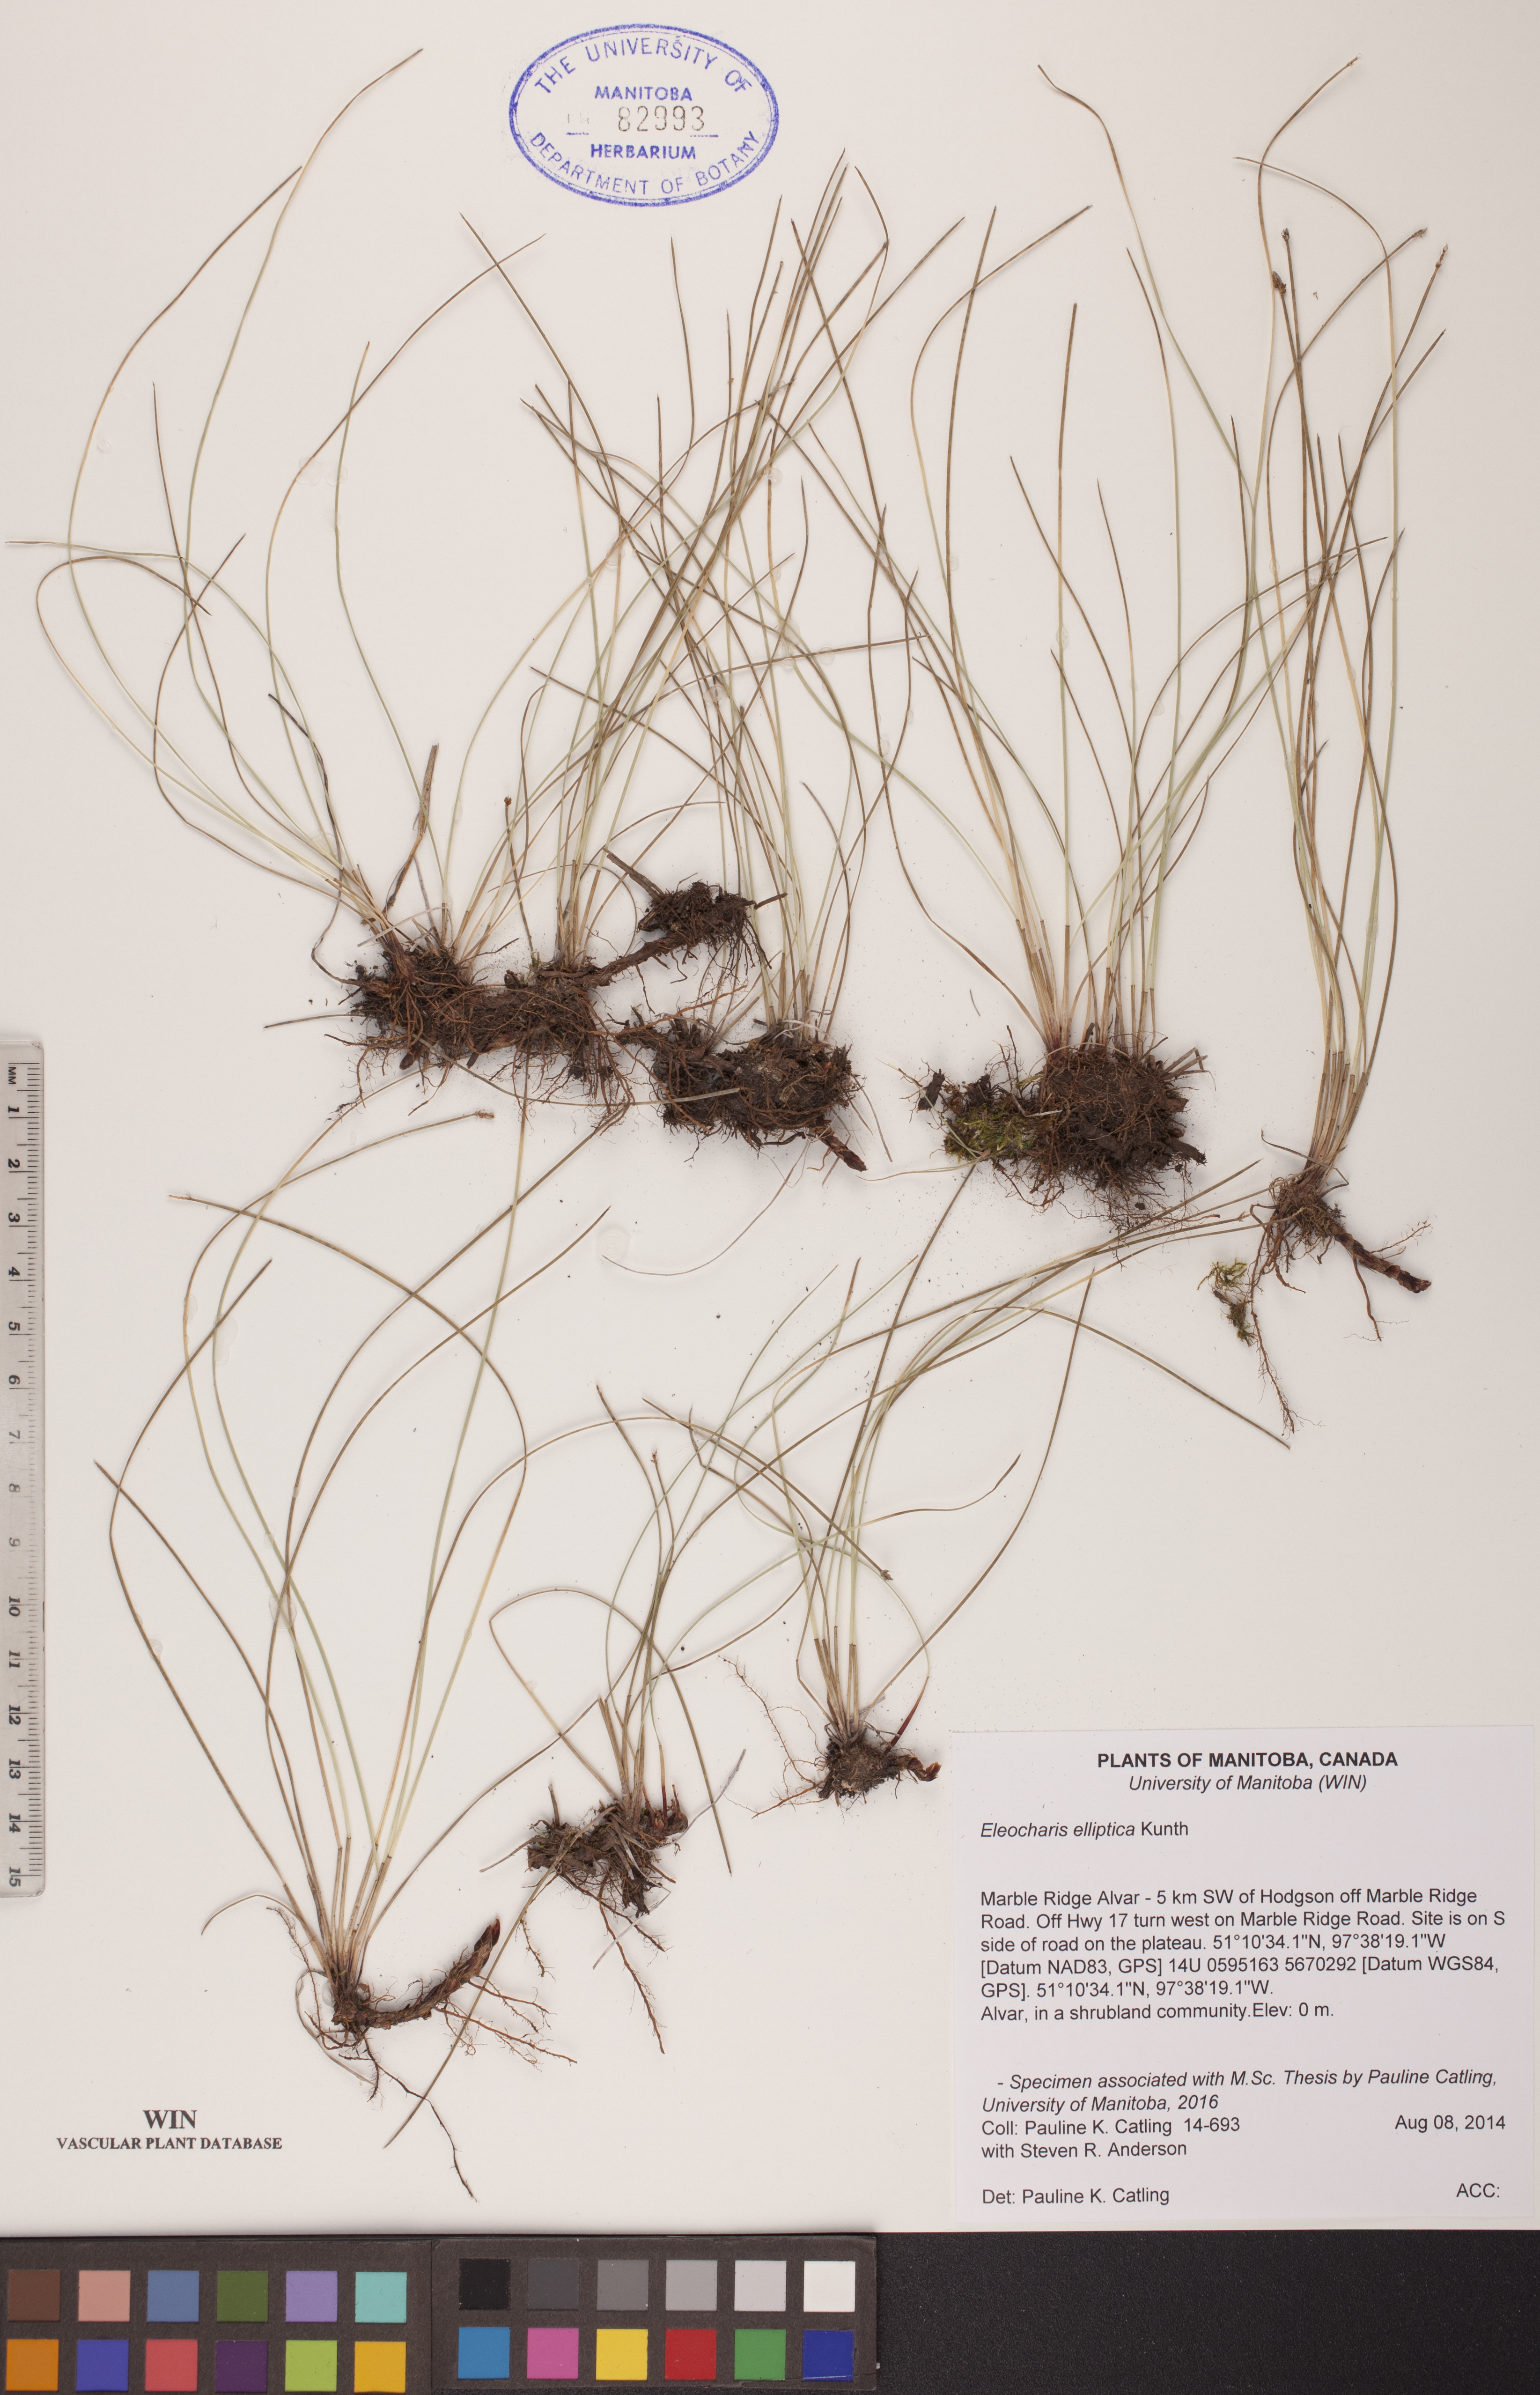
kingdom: Plantae
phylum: Tracheophyta
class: Liliopsida
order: Poales
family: Cyperaceae
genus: Eleocharis
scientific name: Eleocharis elliptica
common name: Capitate spikerush
